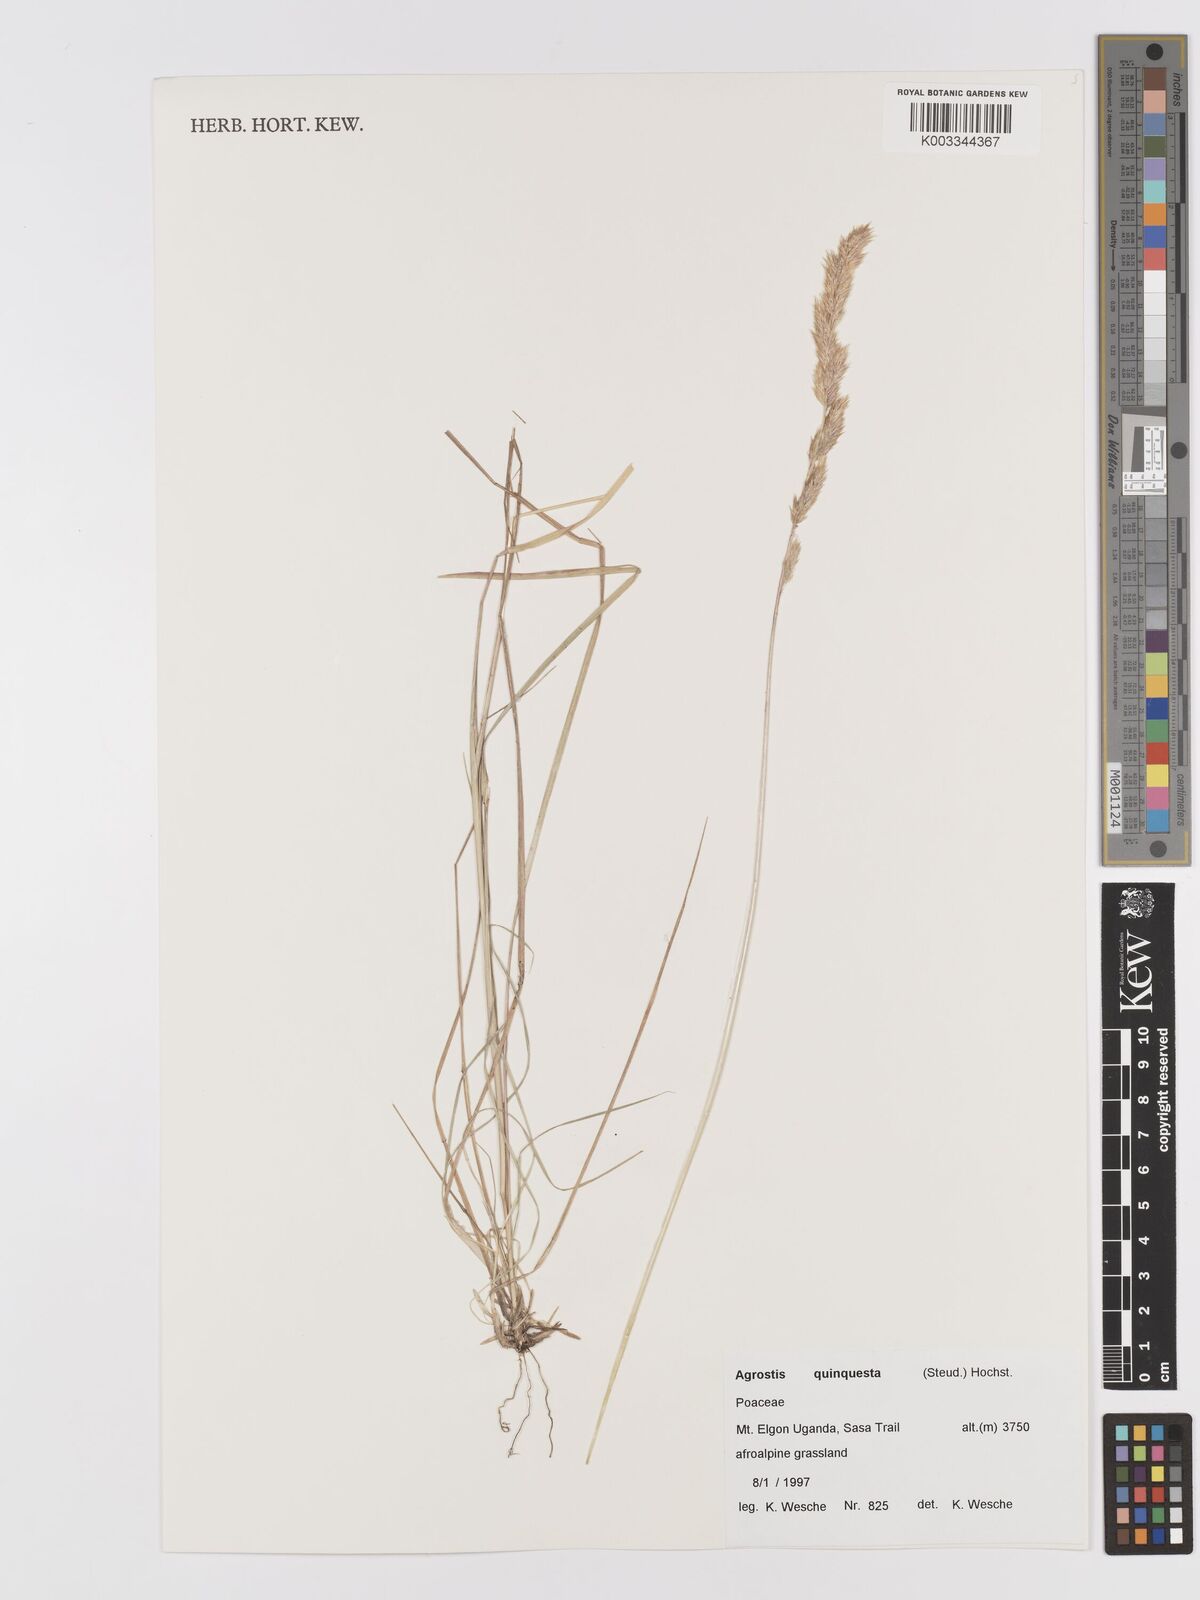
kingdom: Plantae
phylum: Tracheophyta
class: Liliopsida
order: Poales
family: Poaceae
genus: Agrostis
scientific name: Agrostis quinqueseta
